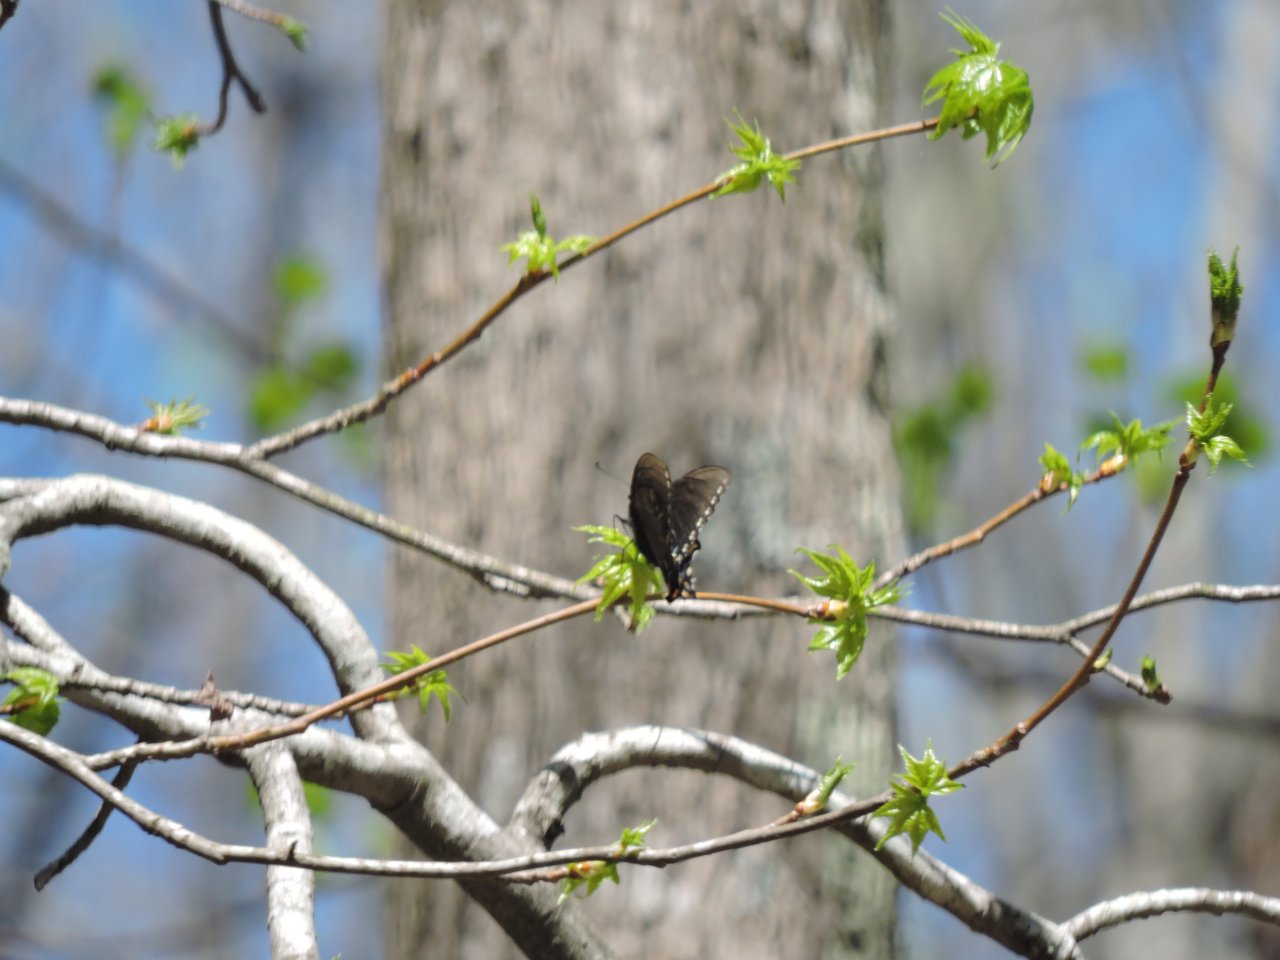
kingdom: Animalia
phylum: Arthropoda
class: Insecta
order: Lepidoptera
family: Papilionidae
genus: Pterourus
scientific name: Pterourus glaucus
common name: Eastern Tiger Swallowtail
